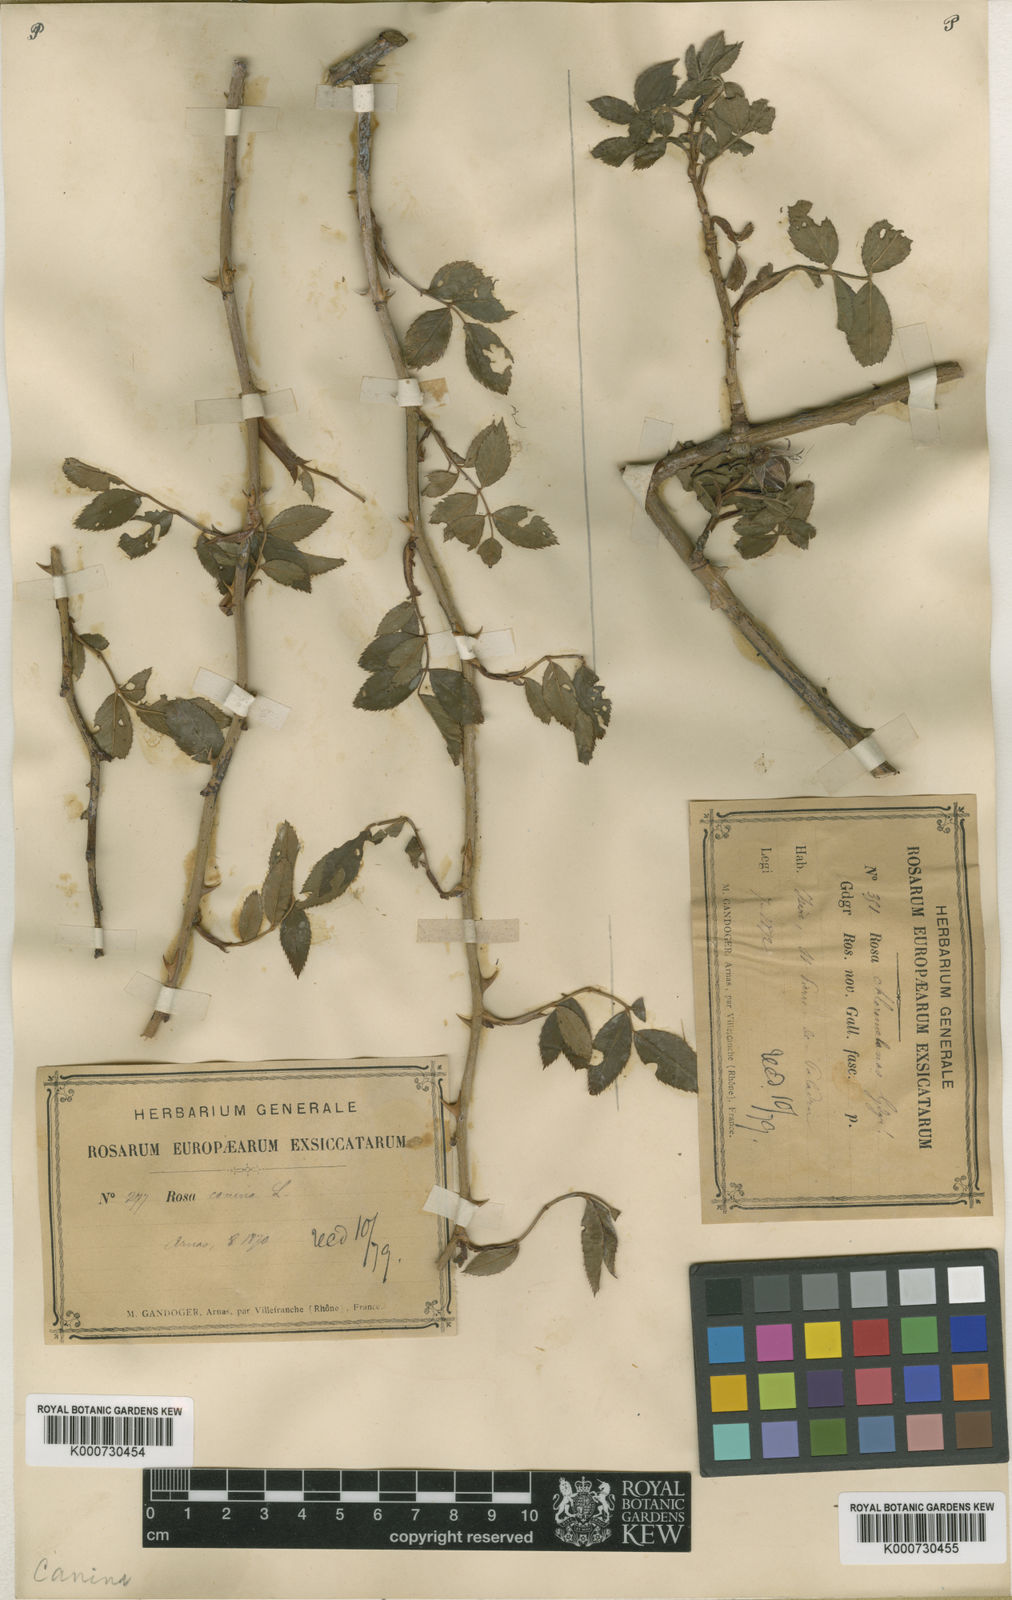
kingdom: Plantae
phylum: Tracheophyta
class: Magnoliopsida
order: Rosales
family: Rosaceae
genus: Rosa
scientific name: Rosa canina
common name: Dog rose
